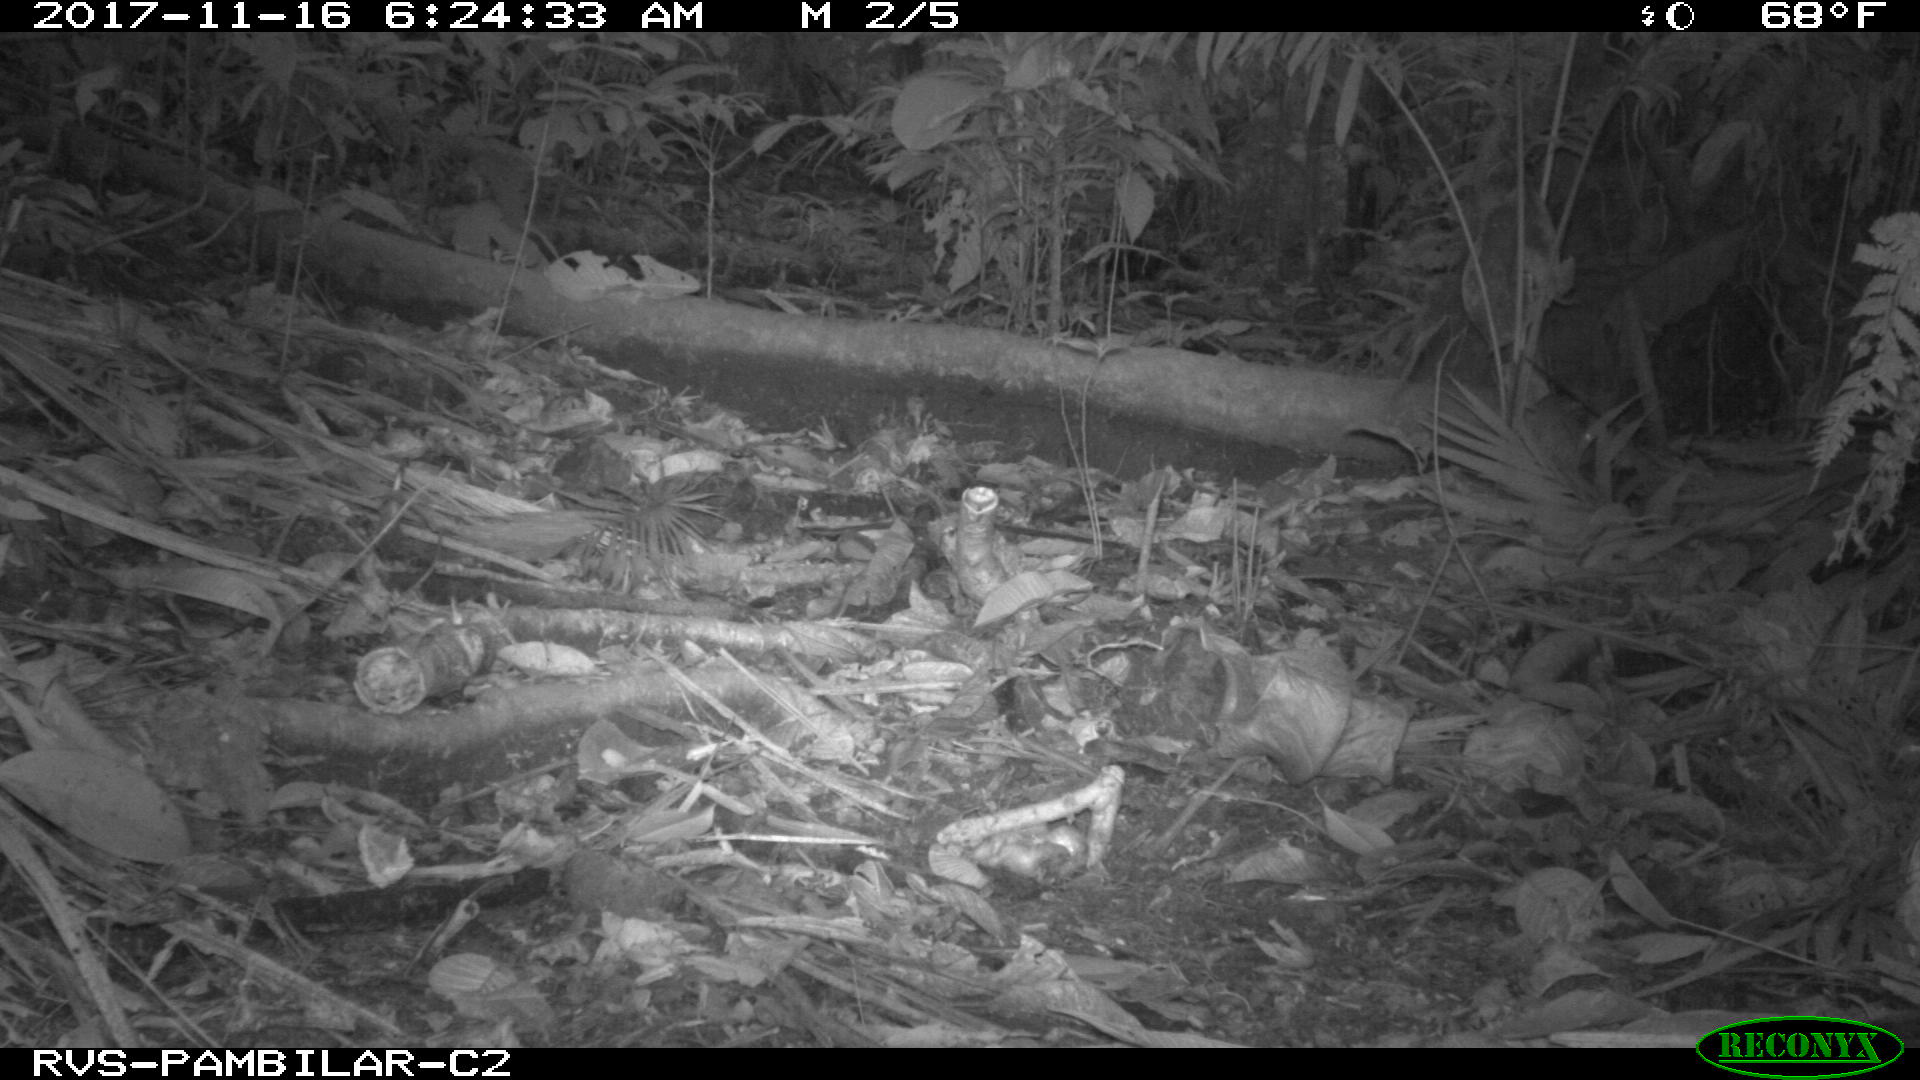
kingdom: Animalia
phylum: Chordata
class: Mammalia
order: Rodentia
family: Dasyproctidae
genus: Dasyprocta
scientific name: Dasyprocta punctata
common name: Central american agouti
